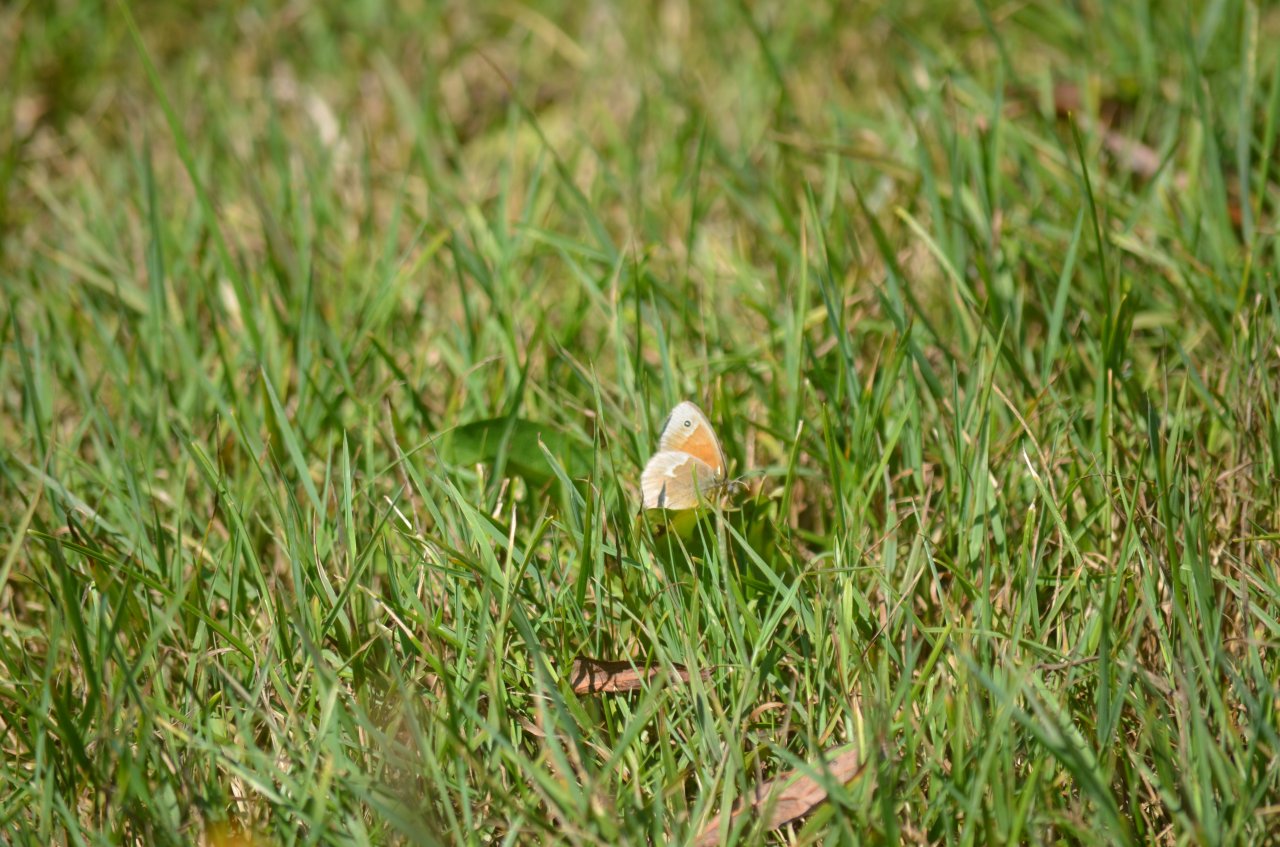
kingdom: Animalia
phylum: Arthropoda
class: Insecta
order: Lepidoptera
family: Nymphalidae
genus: Coenonympha
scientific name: Coenonympha tullia
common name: Large Heath
